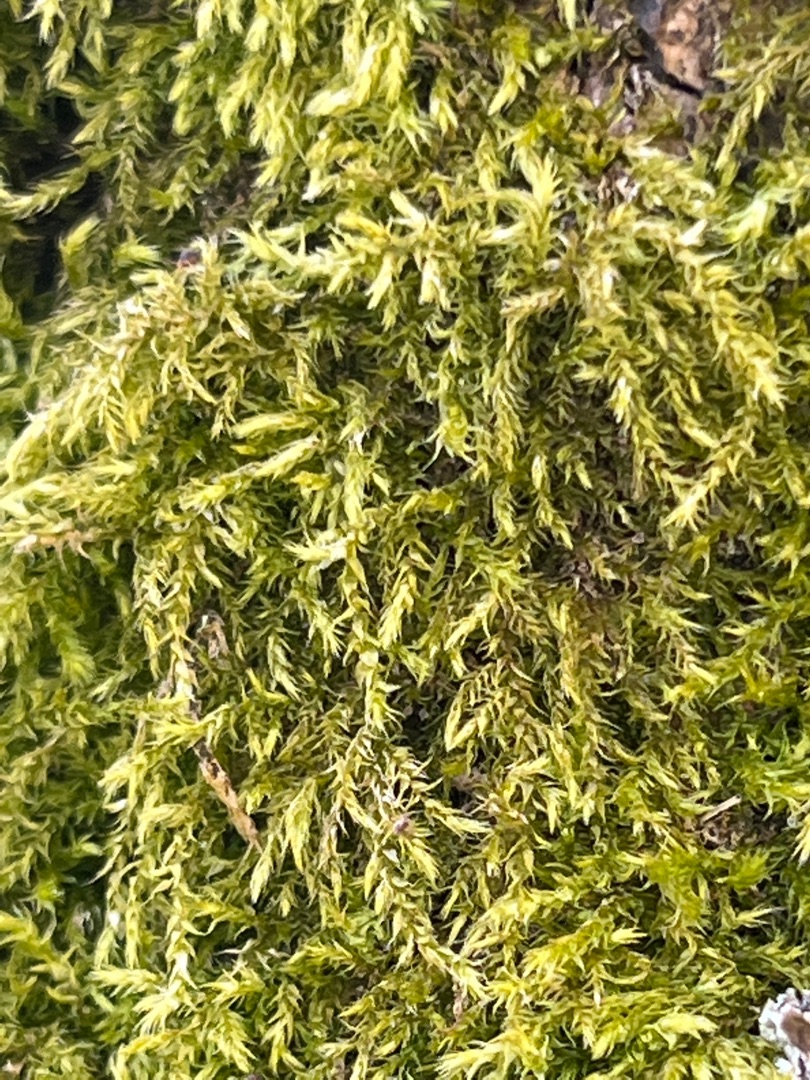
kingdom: Plantae
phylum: Bryophyta
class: Bryopsida
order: Hypnales
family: Brachytheciaceae
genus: Kindbergia
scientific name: Kindbergia praelonga
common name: Forskelligbladet vortetand
